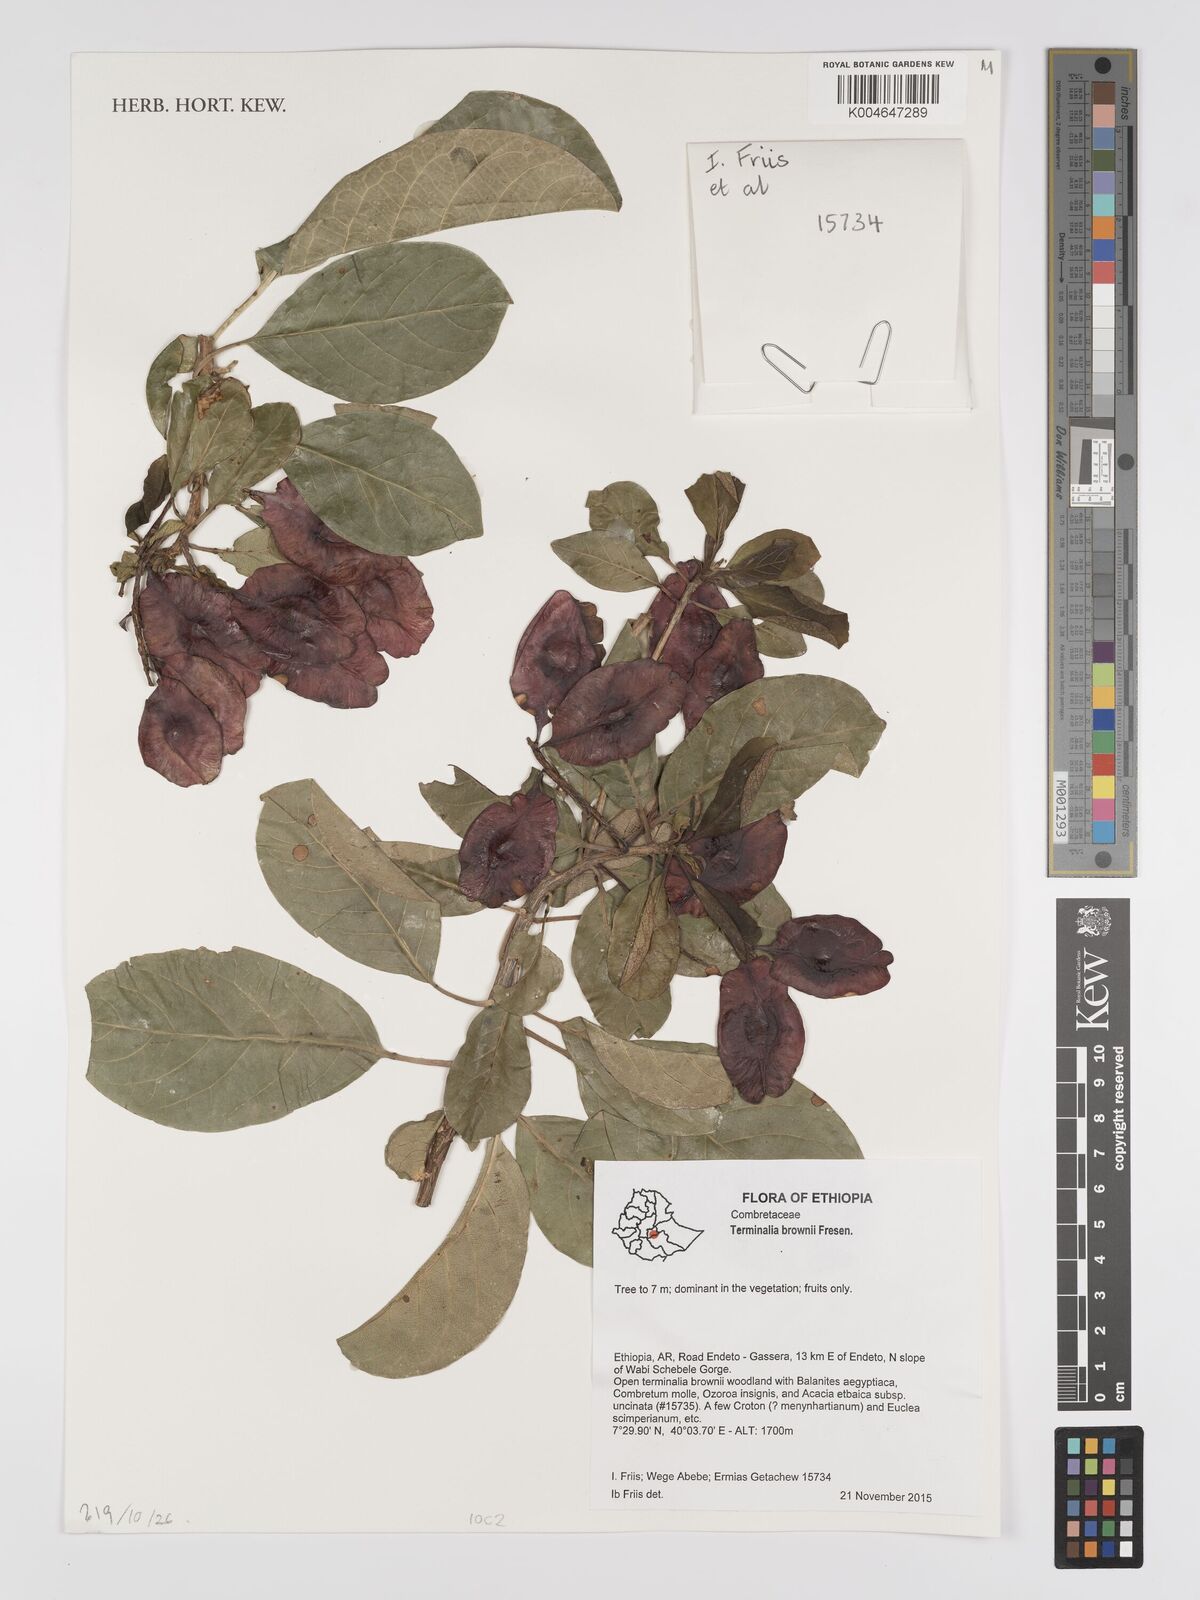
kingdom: Plantae
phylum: Tracheophyta
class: Magnoliopsida
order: Myrtales
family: Combretaceae
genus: Terminalia
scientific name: Terminalia brownii
